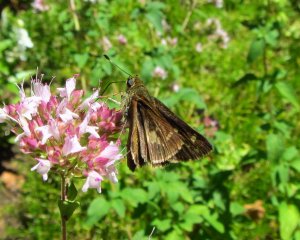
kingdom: Animalia
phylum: Arthropoda
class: Insecta
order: Lepidoptera
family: Hesperiidae
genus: Vernia
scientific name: Vernia verna
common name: Little Glassywing
